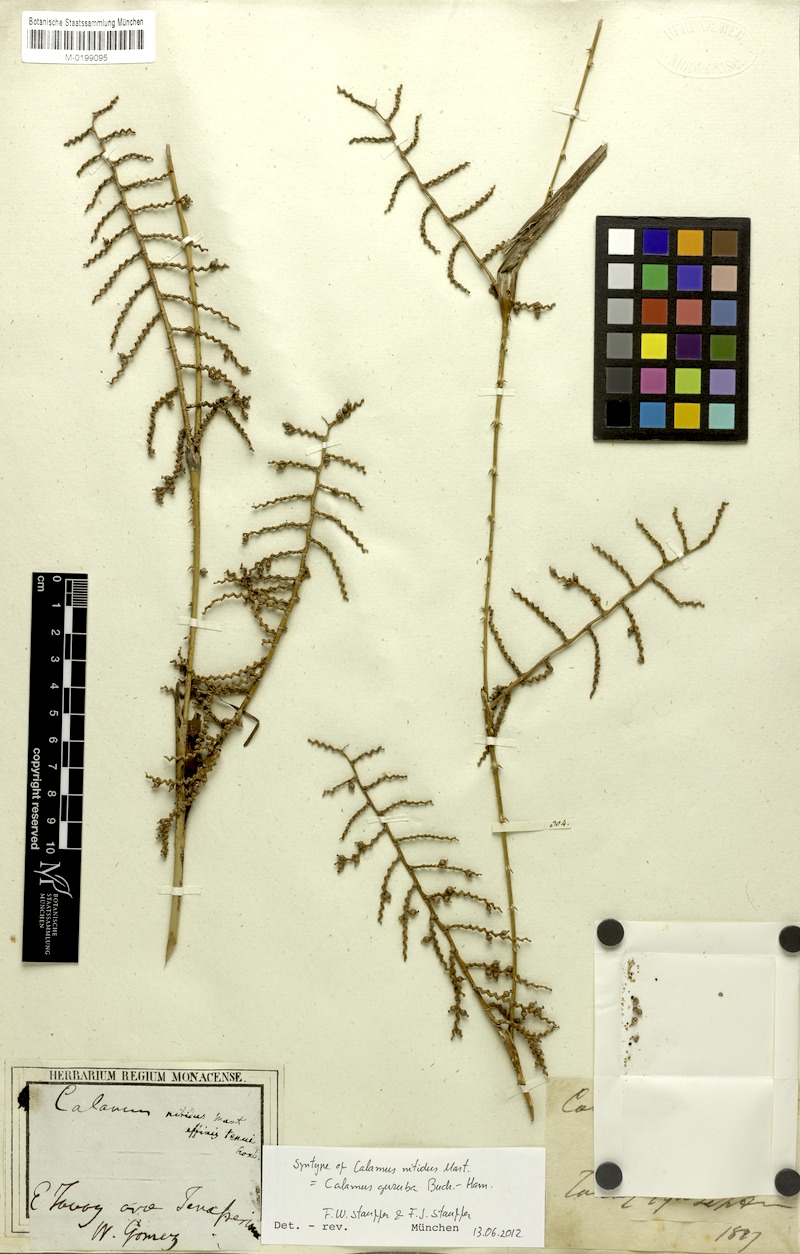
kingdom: Plantae
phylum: Tracheophyta
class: Liliopsida
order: Arecales
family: Arecaceae
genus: Calamus
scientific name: Calamus nitidus
